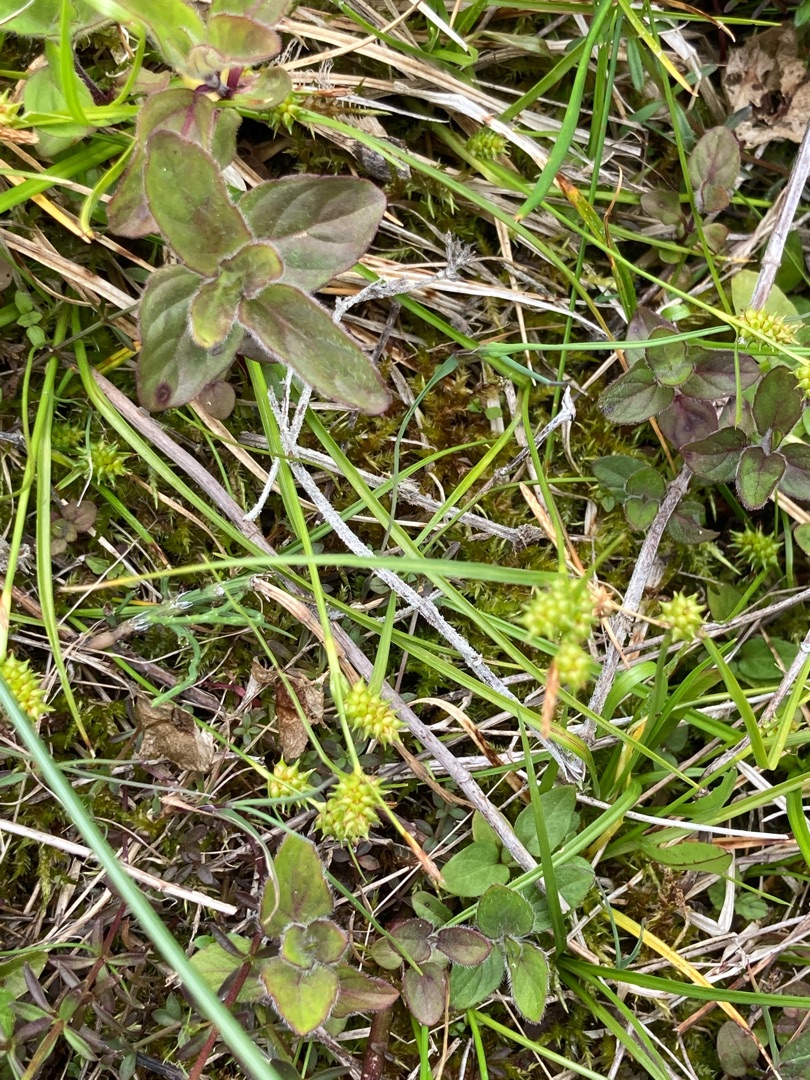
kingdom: Plantae
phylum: Tracheophyta
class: Liliopsida
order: Poales
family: Cyperaceae
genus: Carex
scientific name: Carex demissa
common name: Grøn star
